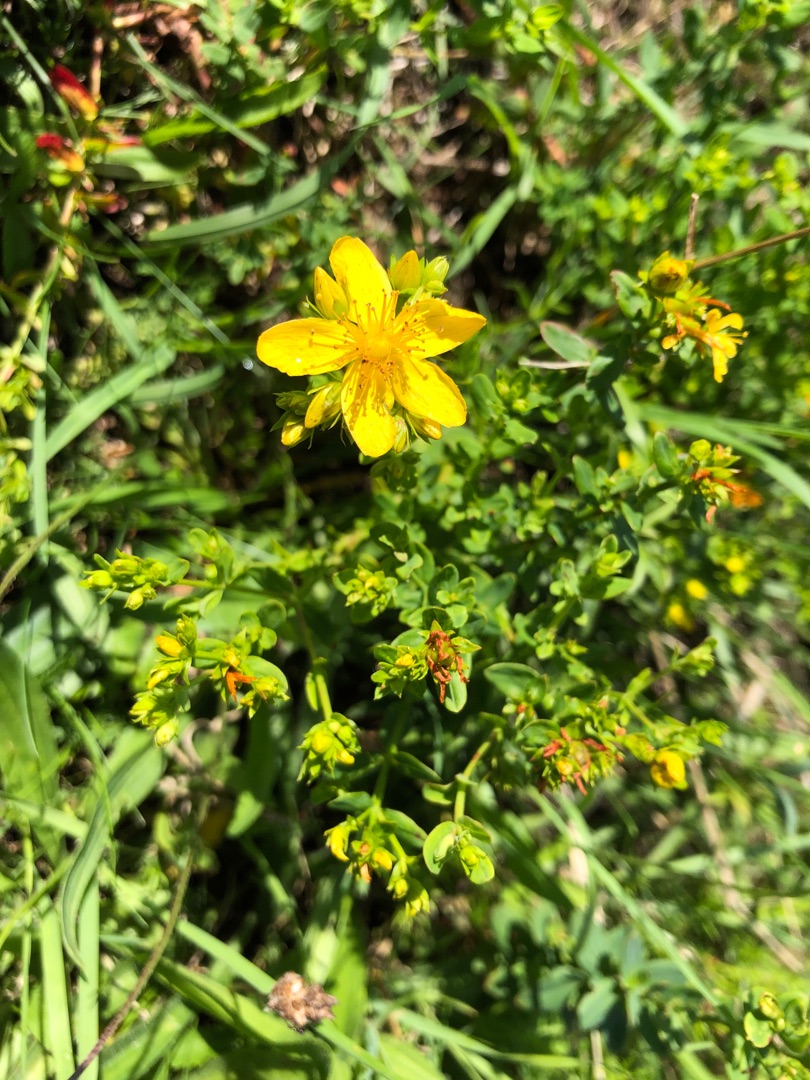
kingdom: Plantae
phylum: Tracheophyta
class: Magnoliopsida
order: Malpighiales
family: Hypericaceae
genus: Hypericum
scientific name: Hypericum perforatum
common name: Prikbladet perikon
